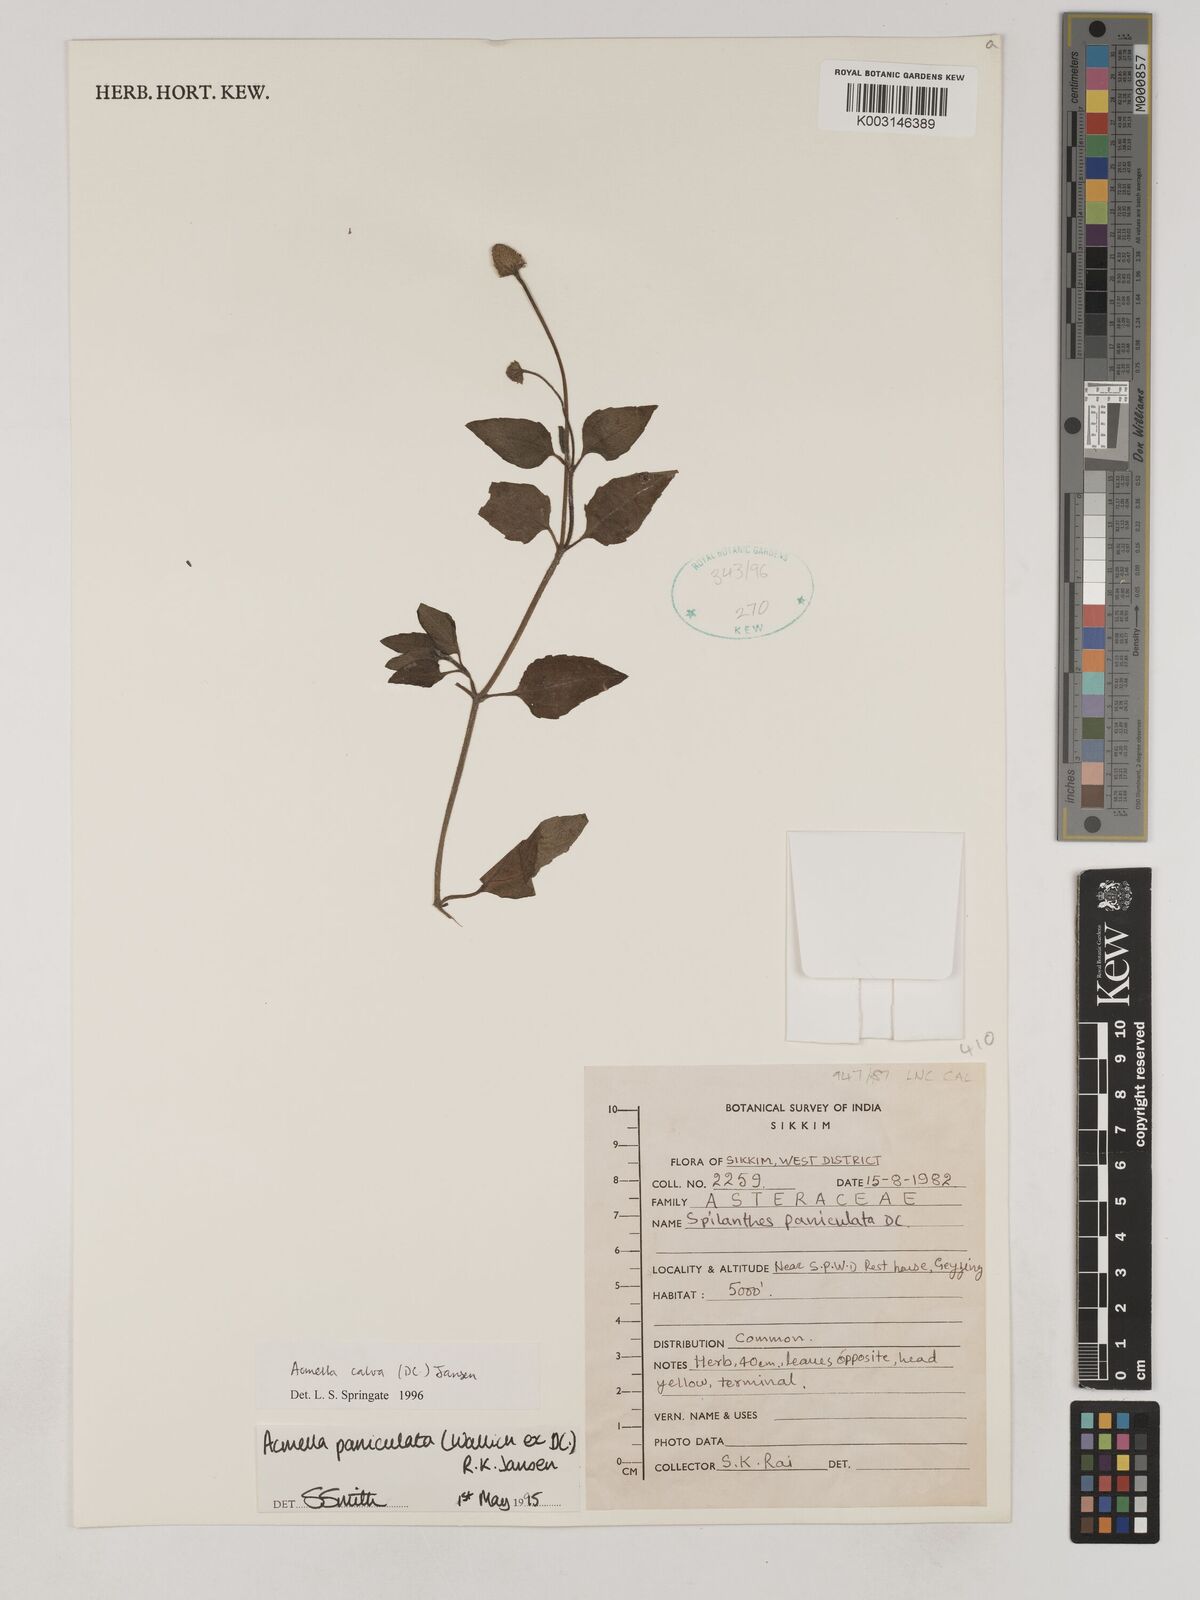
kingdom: Plantae
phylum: Tracheophyta
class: Magnoliopsida
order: Asterales
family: Asteraceae
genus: Acmella
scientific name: Acmella calva
